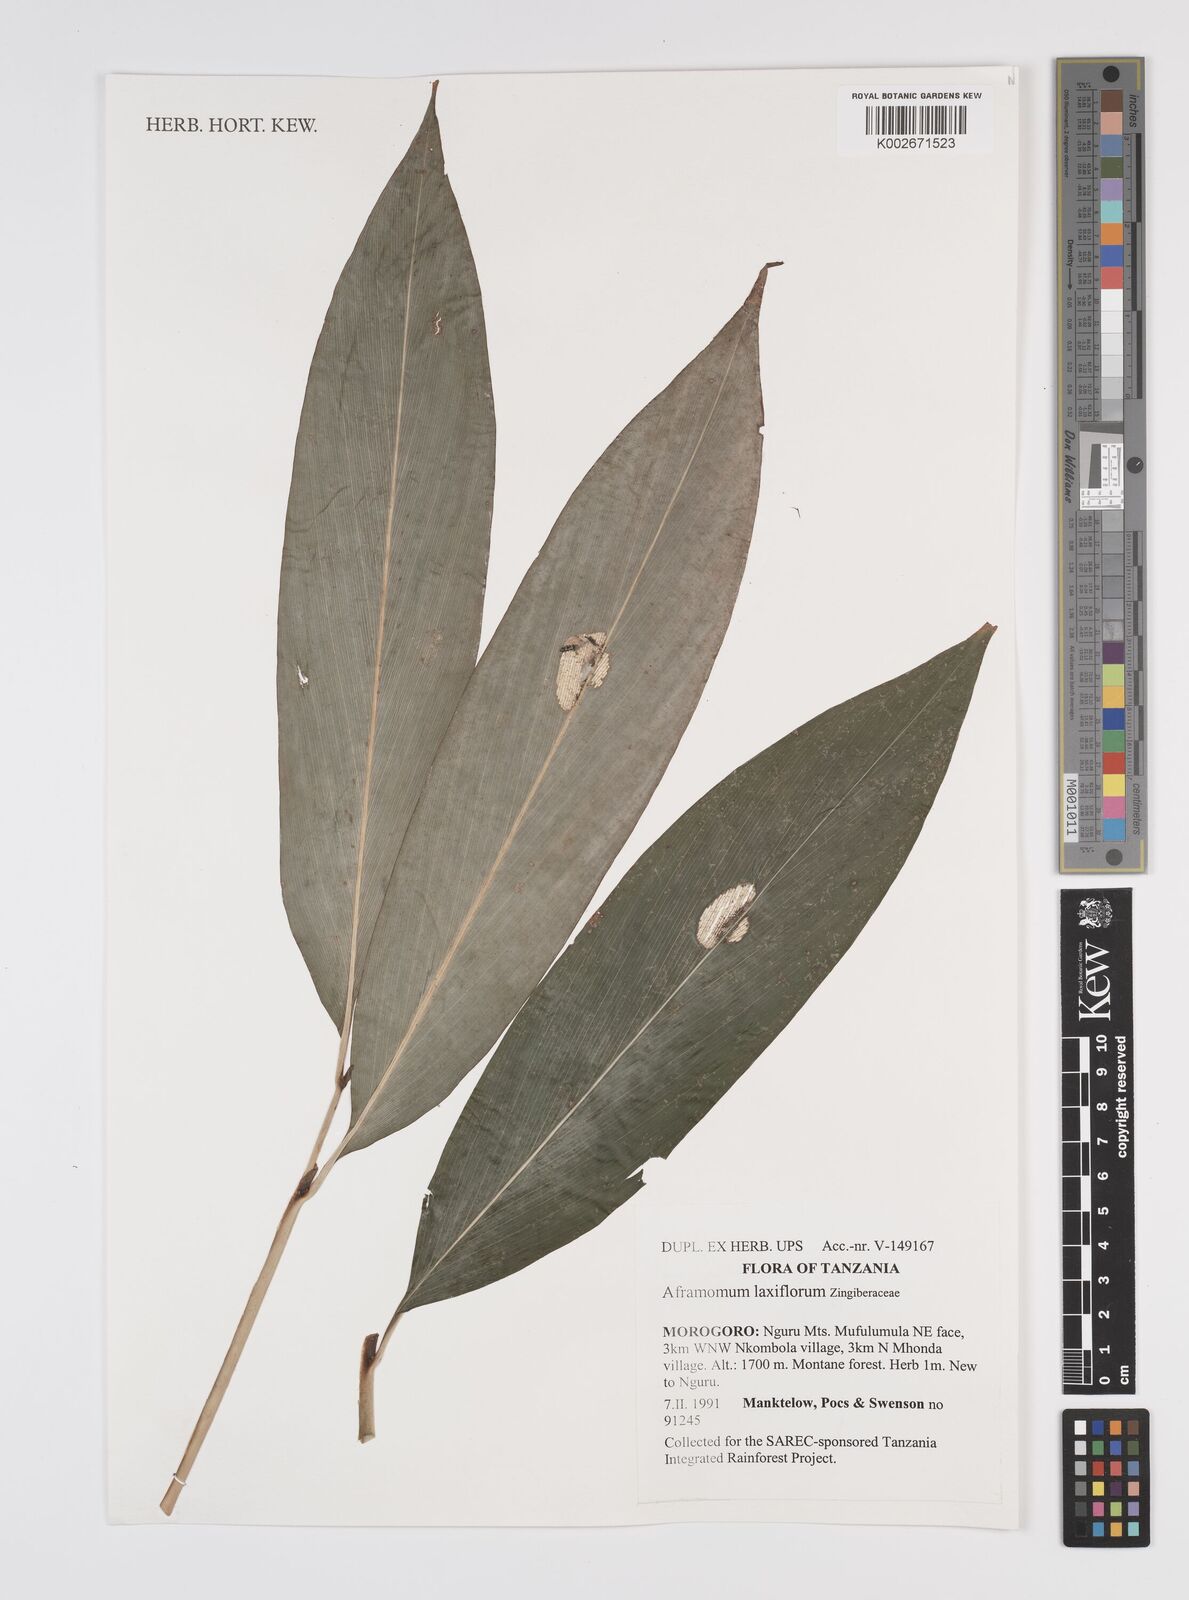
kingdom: Plantae
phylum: Tracheophyta
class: Liliopsida
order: Zingiberales
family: Zingiberaceae
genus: Aframomum
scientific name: Aframomum laxiflorum
